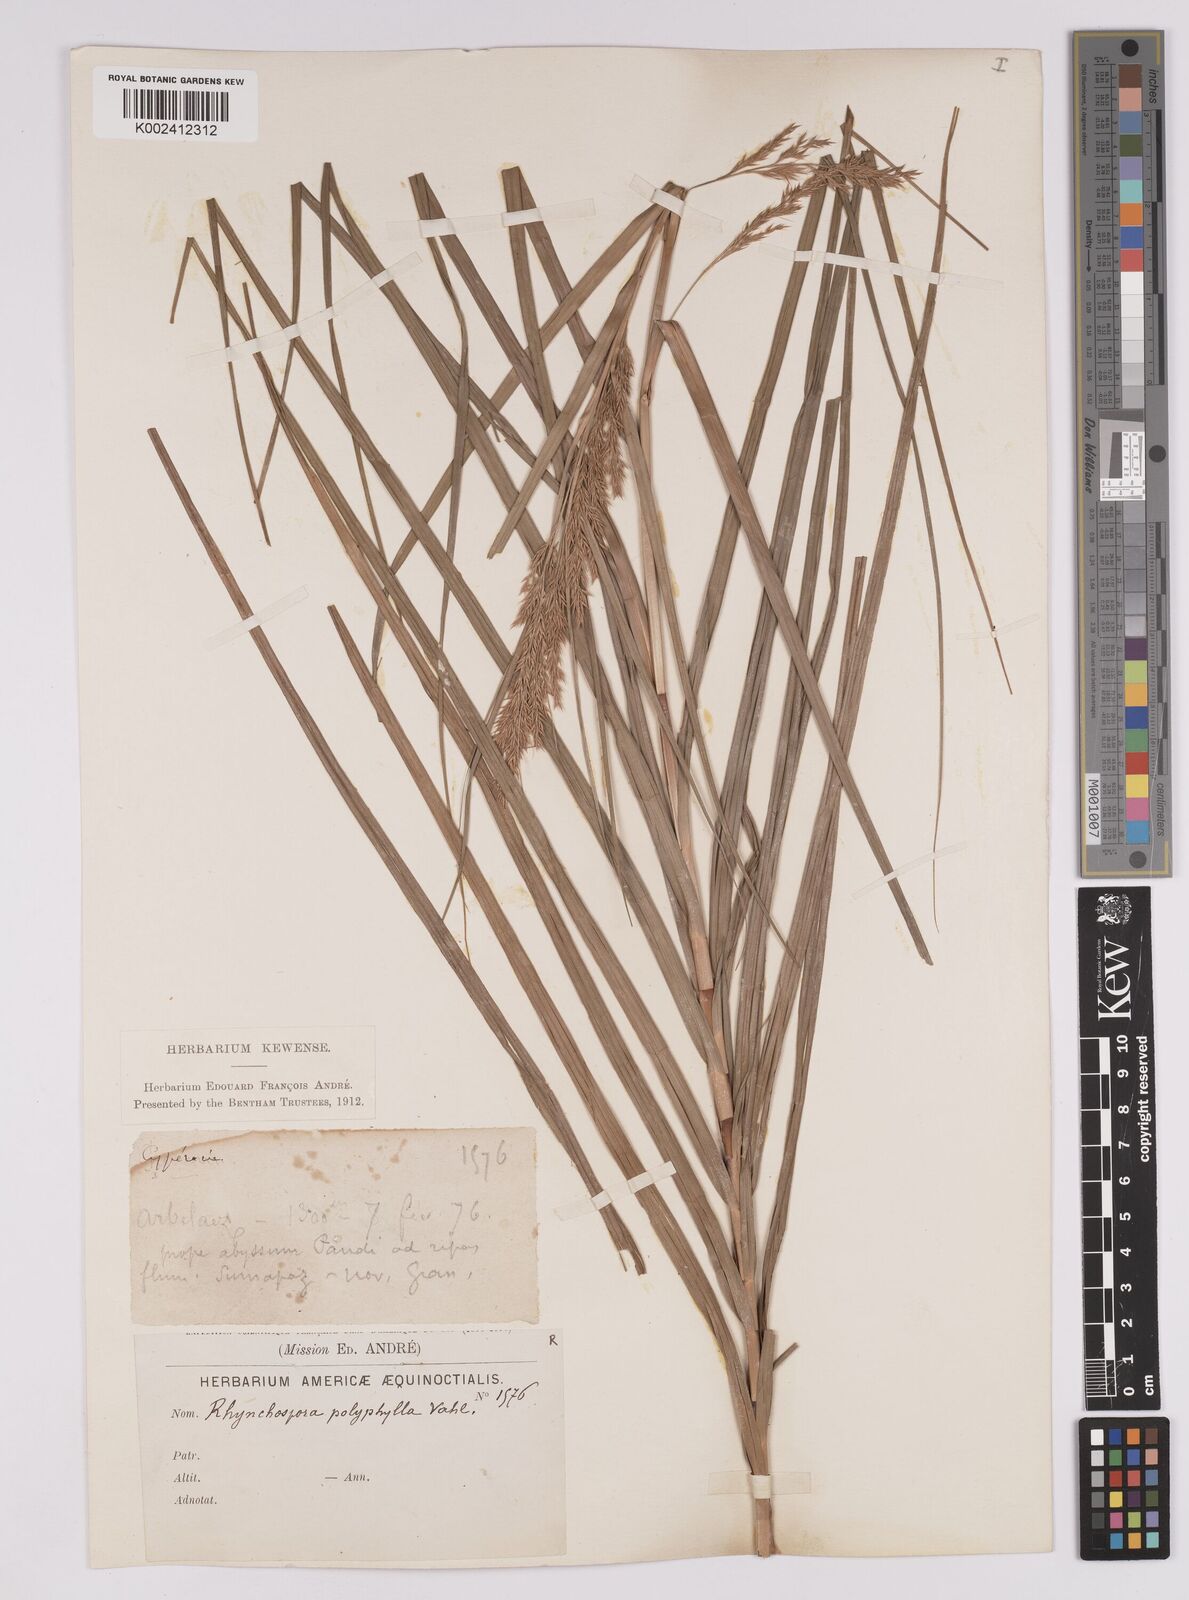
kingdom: Plantae
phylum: Tracheophyta
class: Liliopsida
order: Poales
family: Cyperaceae
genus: Rhynchospora
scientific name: Rhynchospora polyphylla
